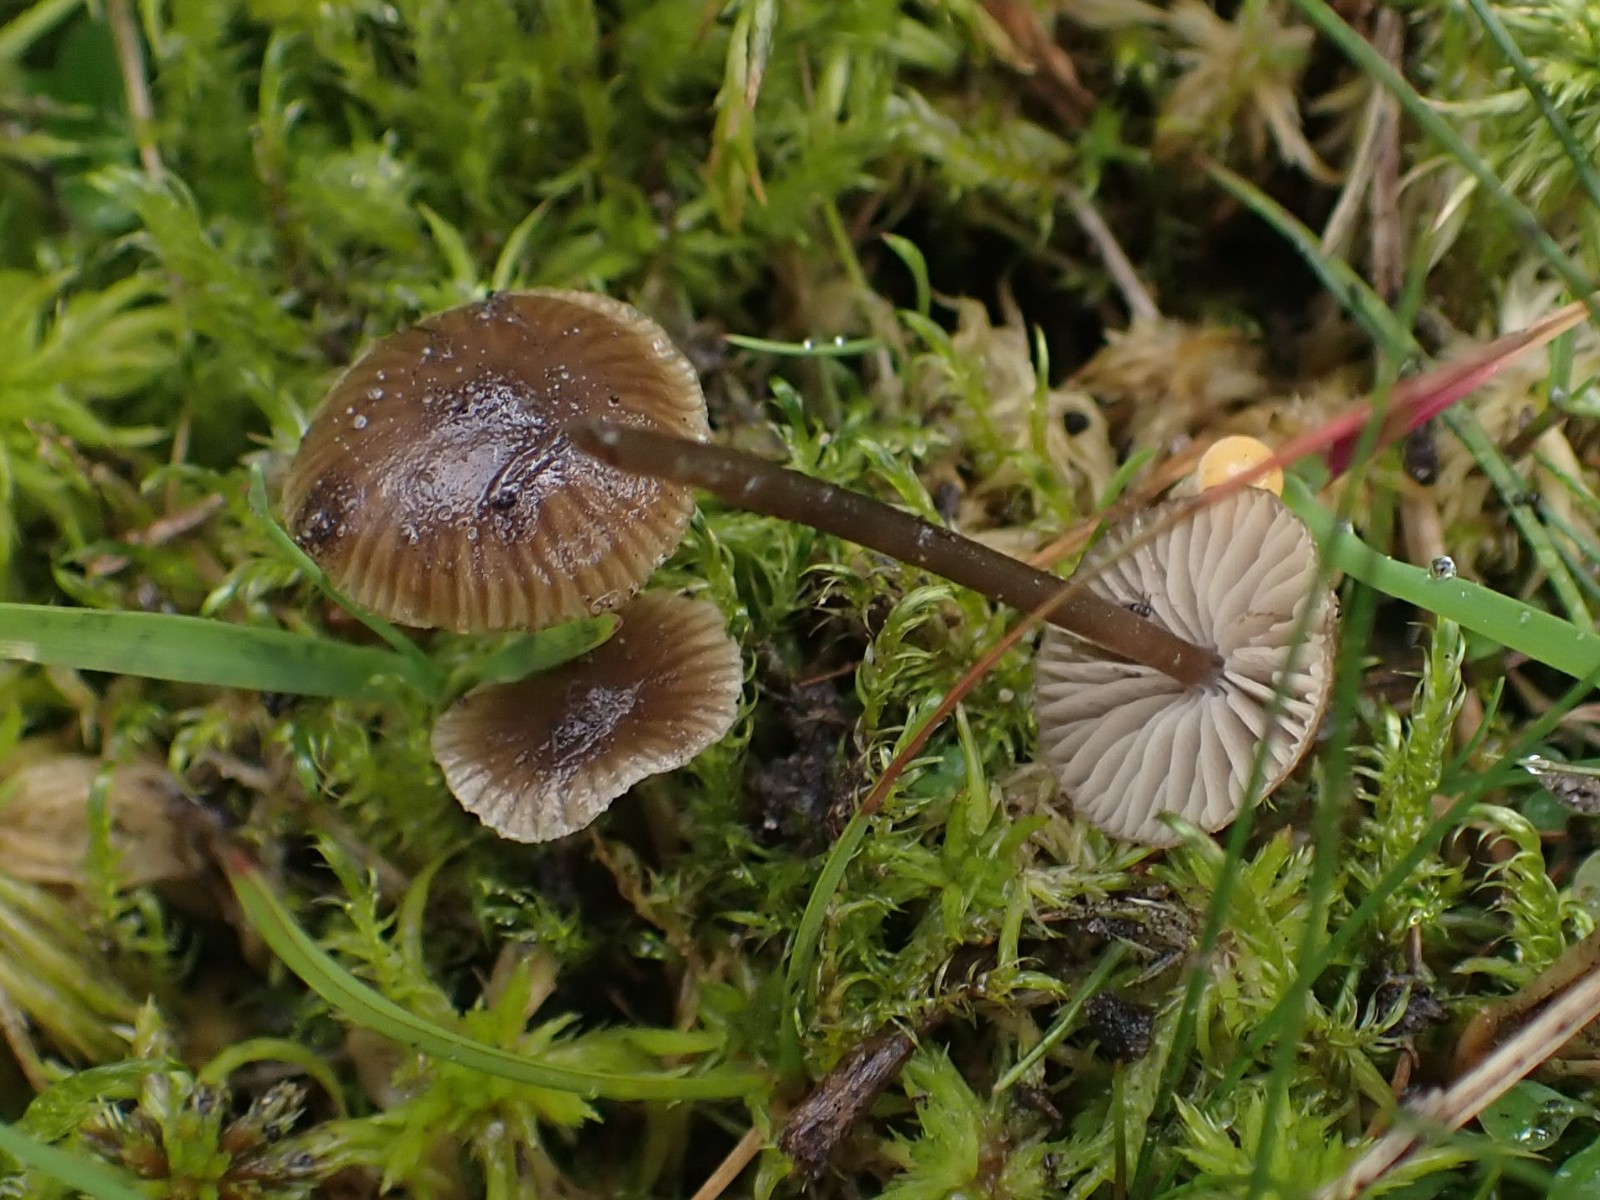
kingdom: Fungi
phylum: Basidiomycota
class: Agaricomycetes
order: Agaricales
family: Lyophyllaceae
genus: Sphagnurus
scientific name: Sphagnurus paluster
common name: tørvemos-gråblad
